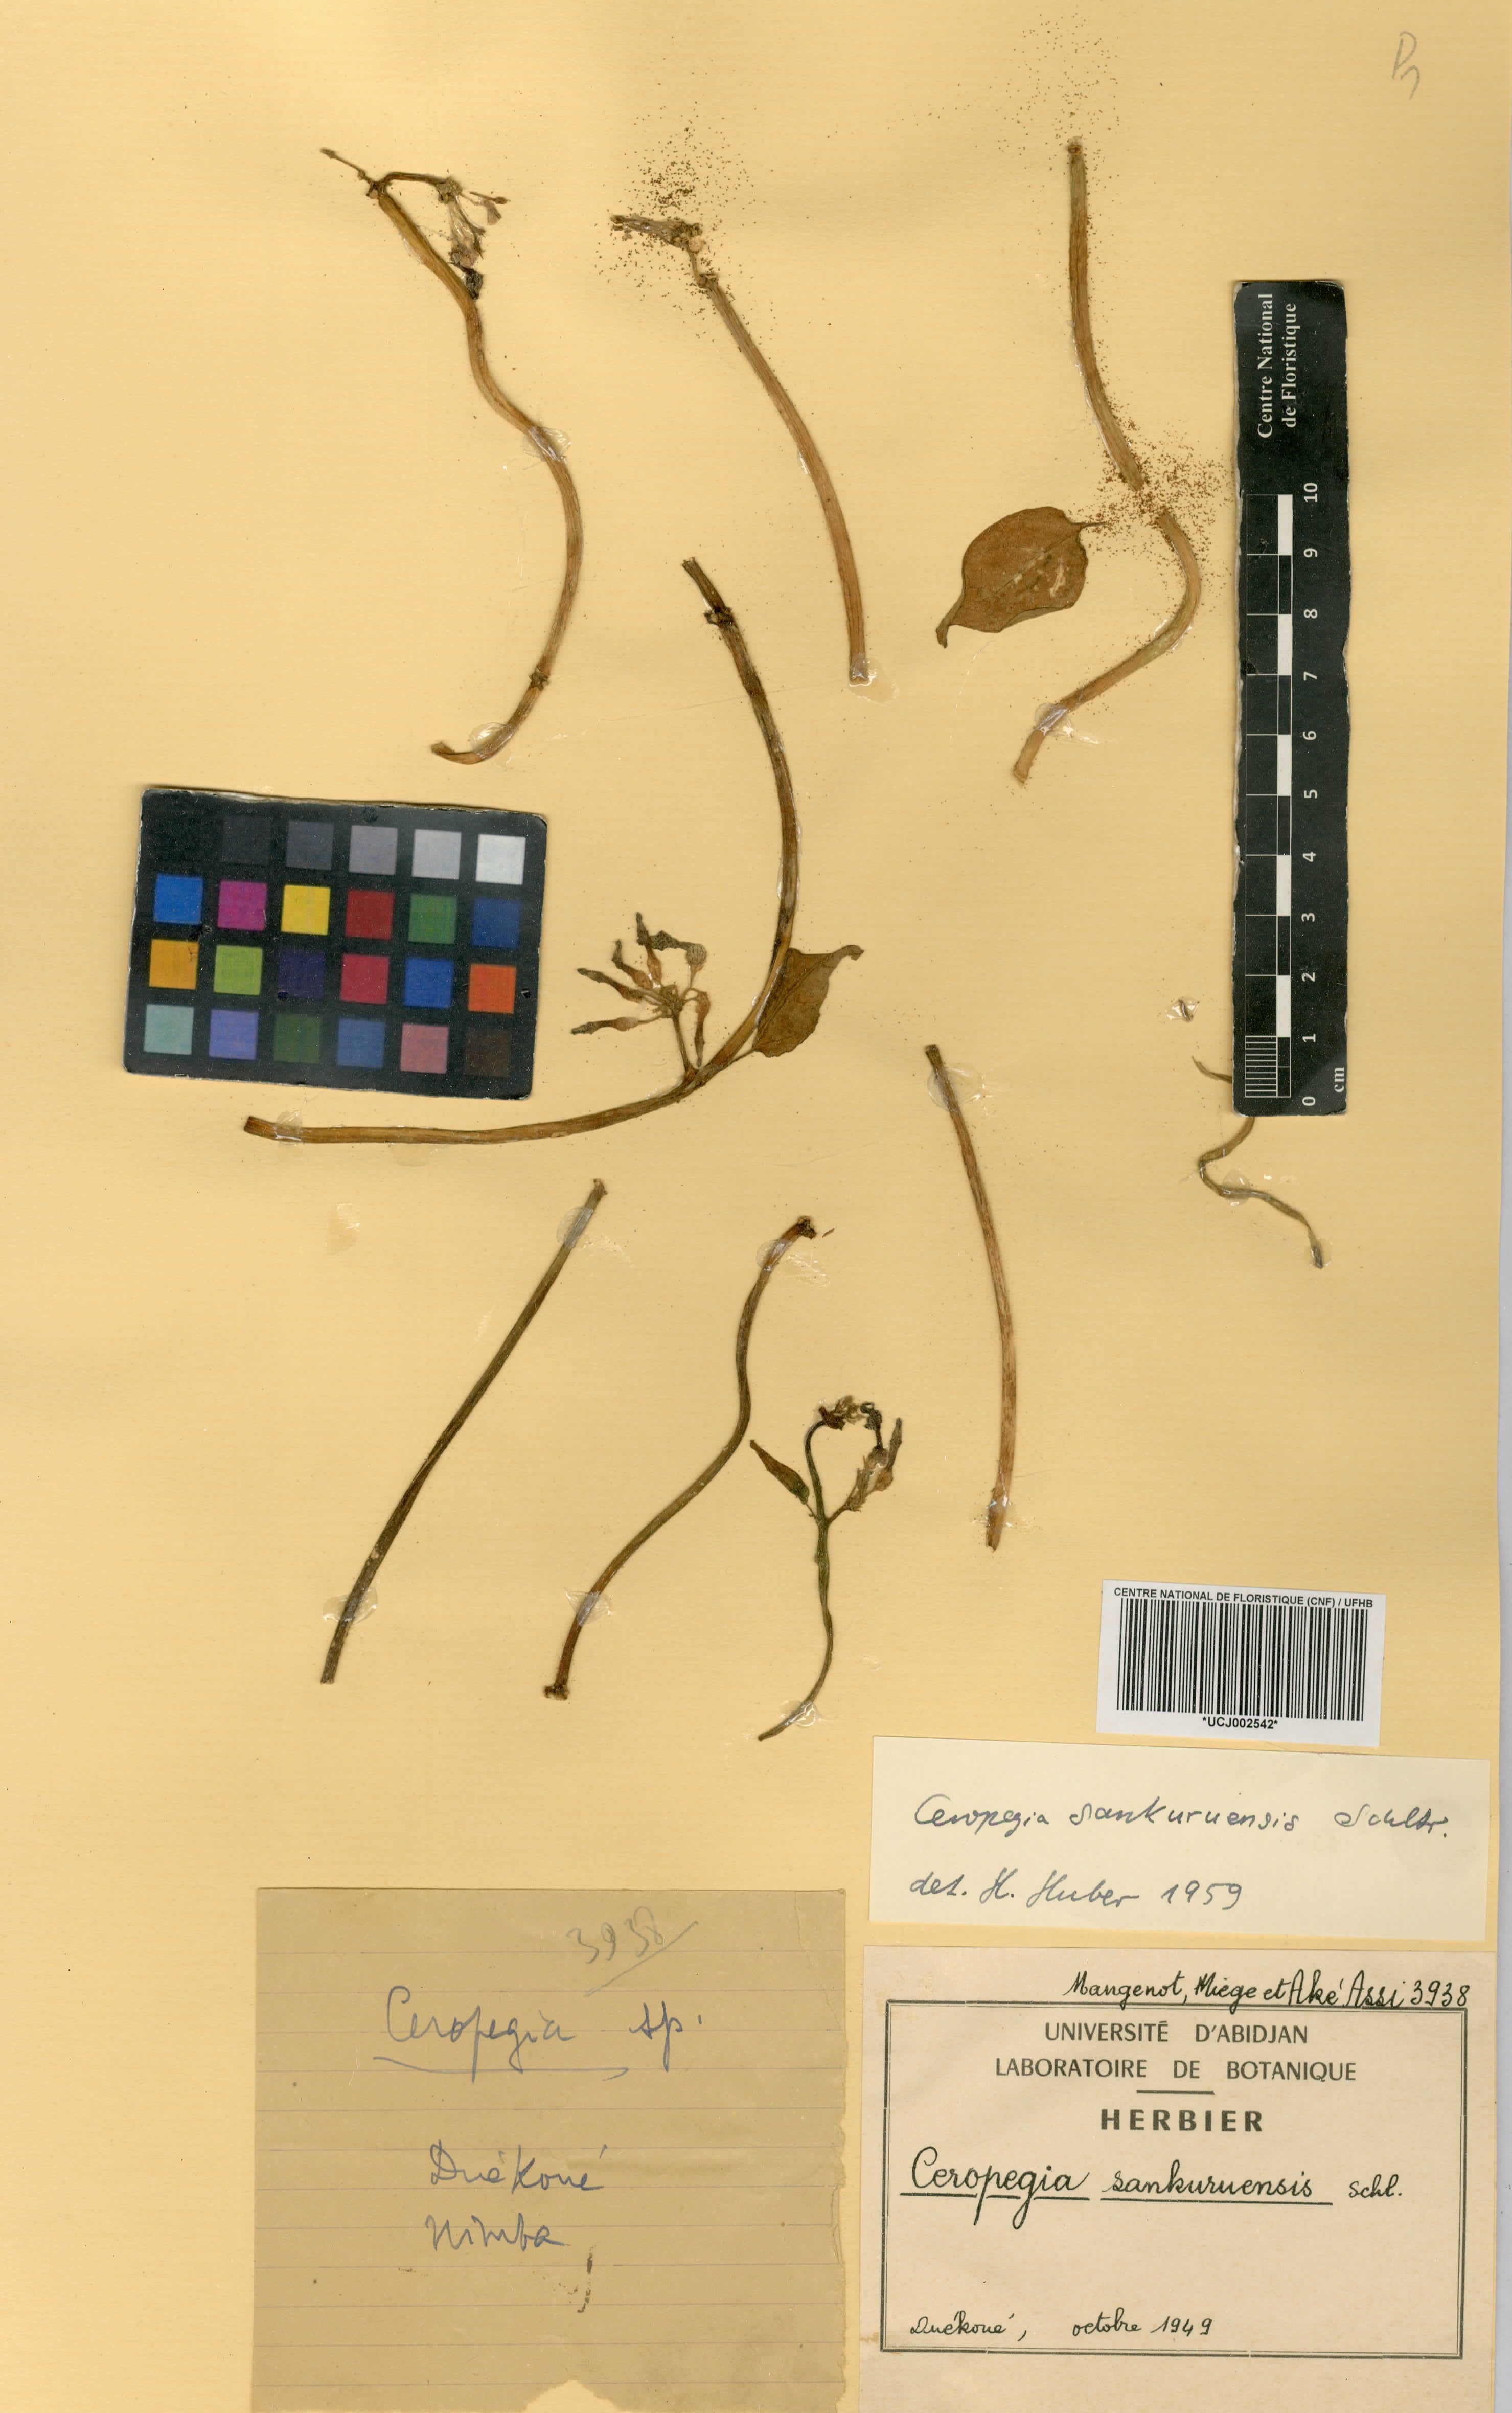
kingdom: Plantae
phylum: Tracheophyta
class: Magnoliopsida
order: Gentianales
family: Apocynaceae
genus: Ceropegia
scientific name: Ceropegia sankuruensis
